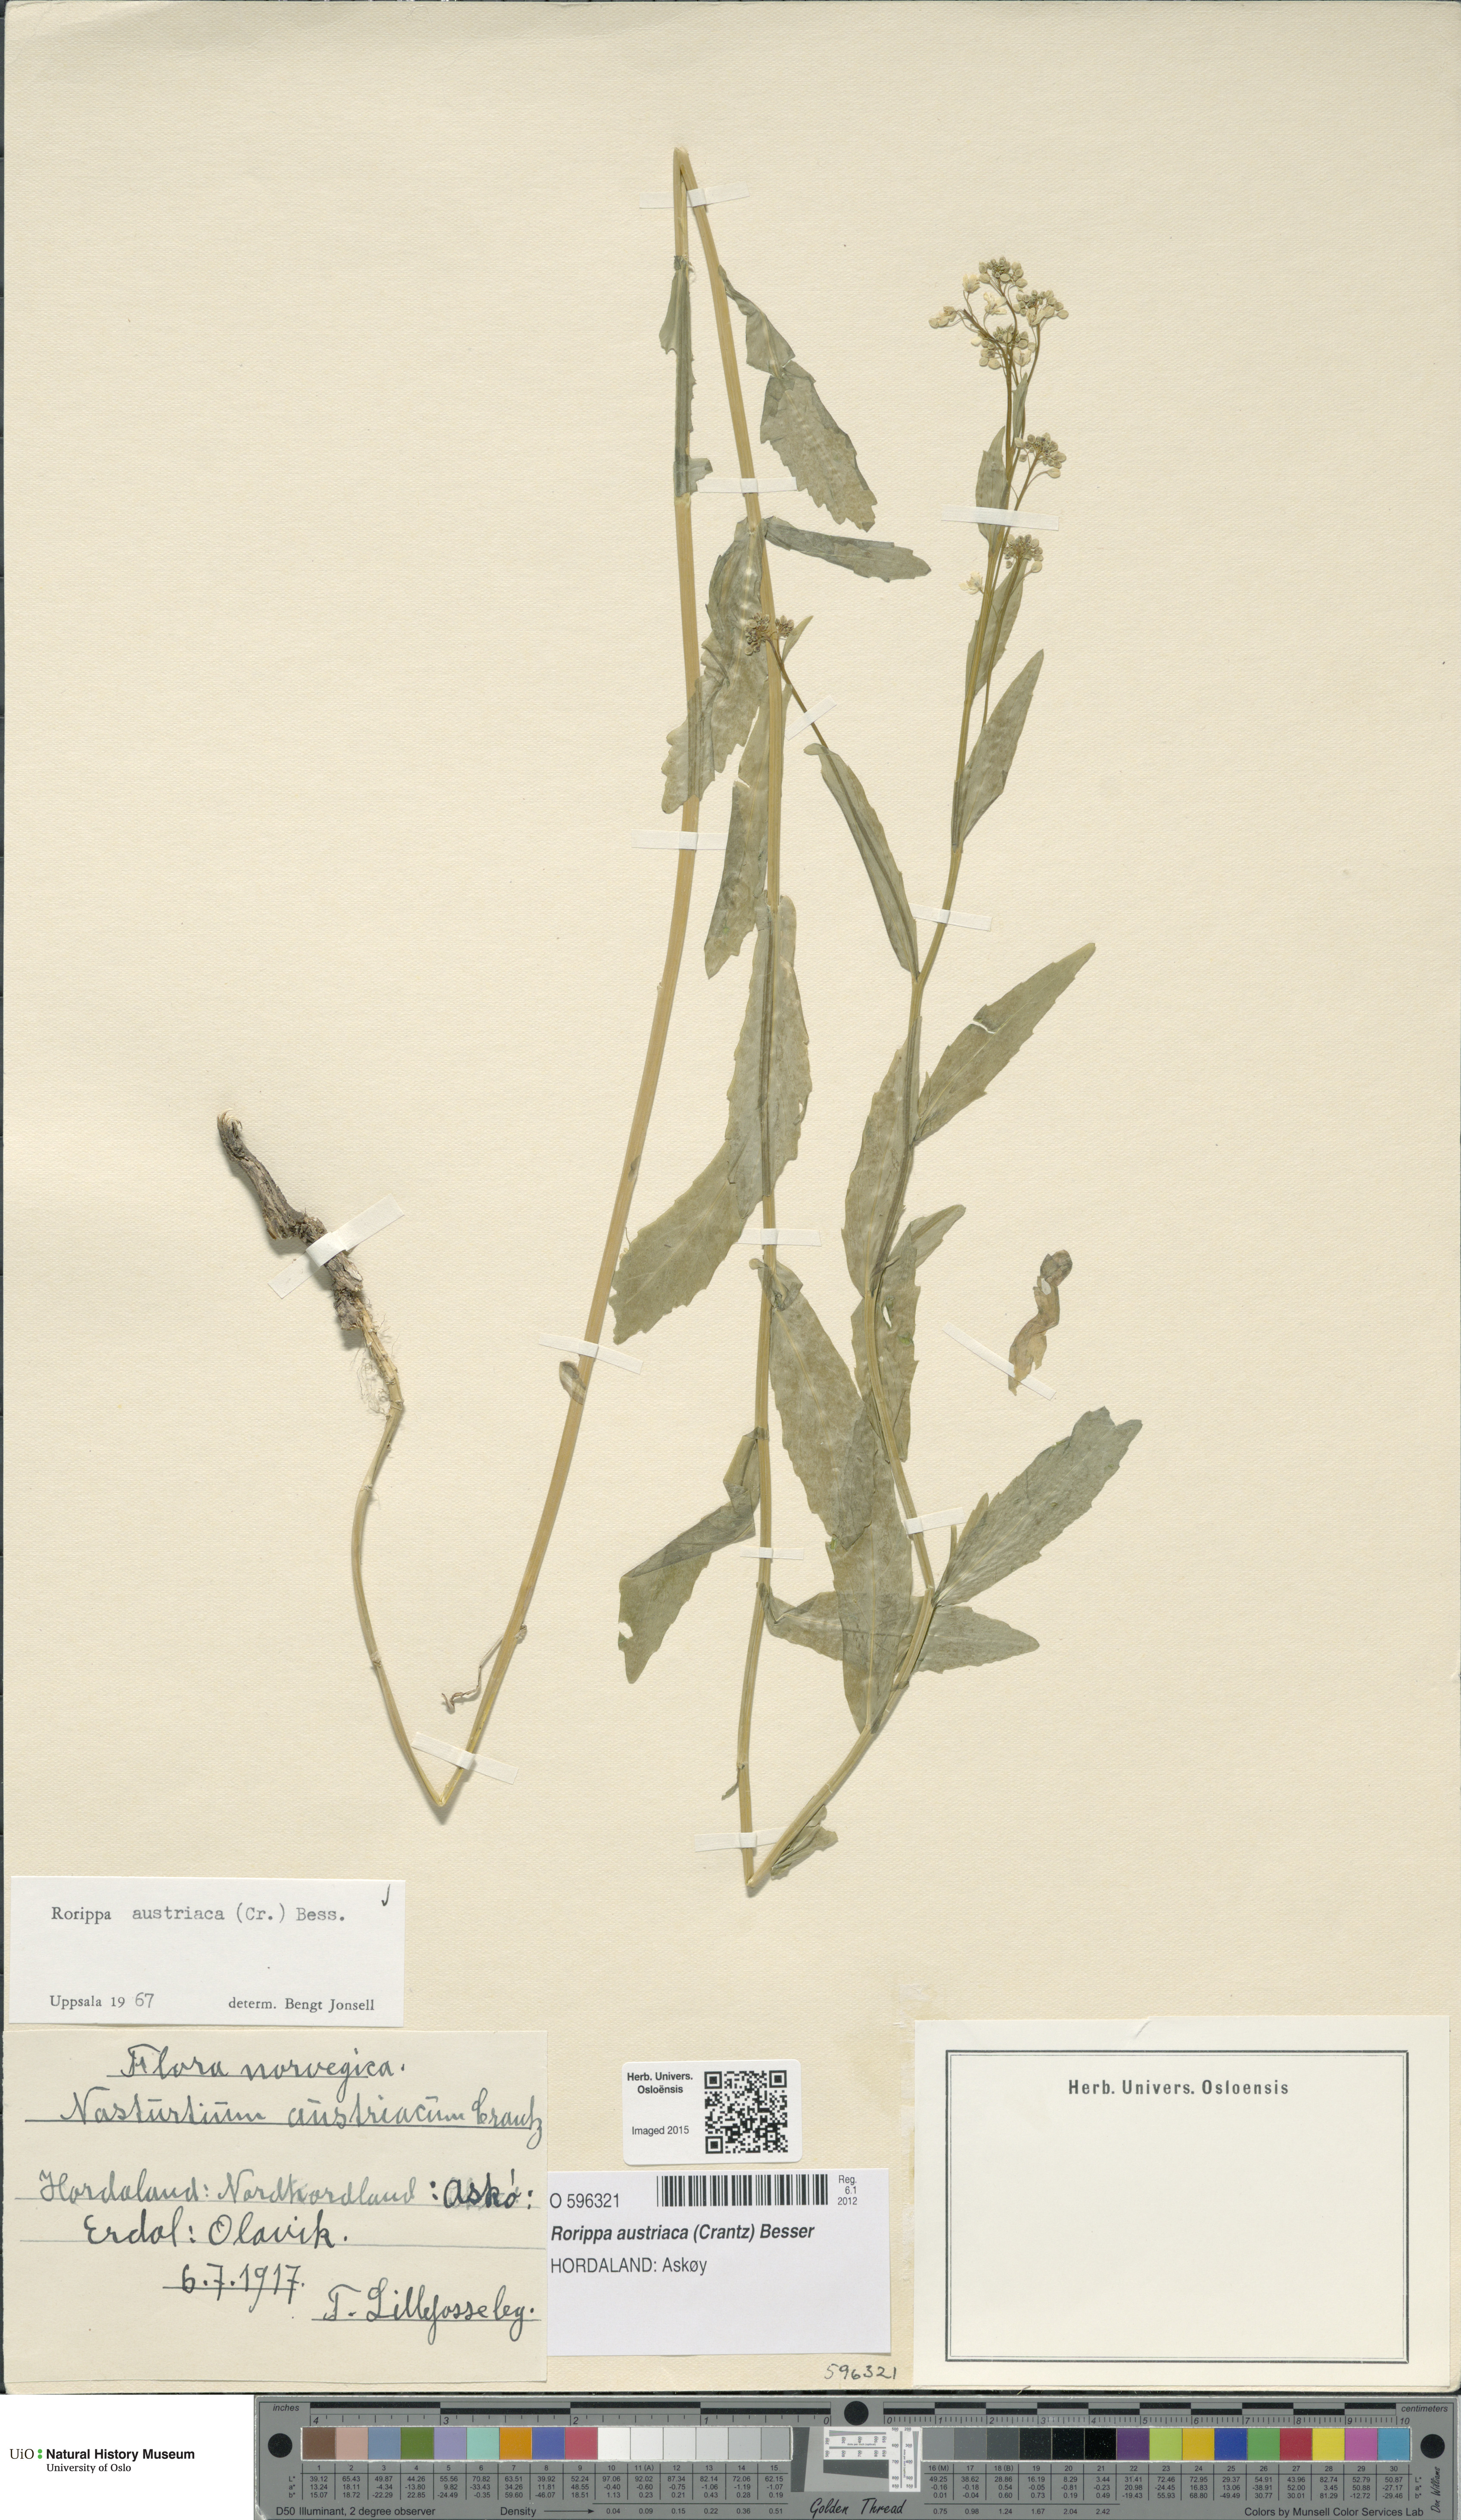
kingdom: Plantae
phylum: Tracheophyta
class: Magnoliopsida
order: Brassicales
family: Brassicaceae
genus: Rorippa
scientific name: Rorippa austriaca
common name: Austrian yellow-cress
